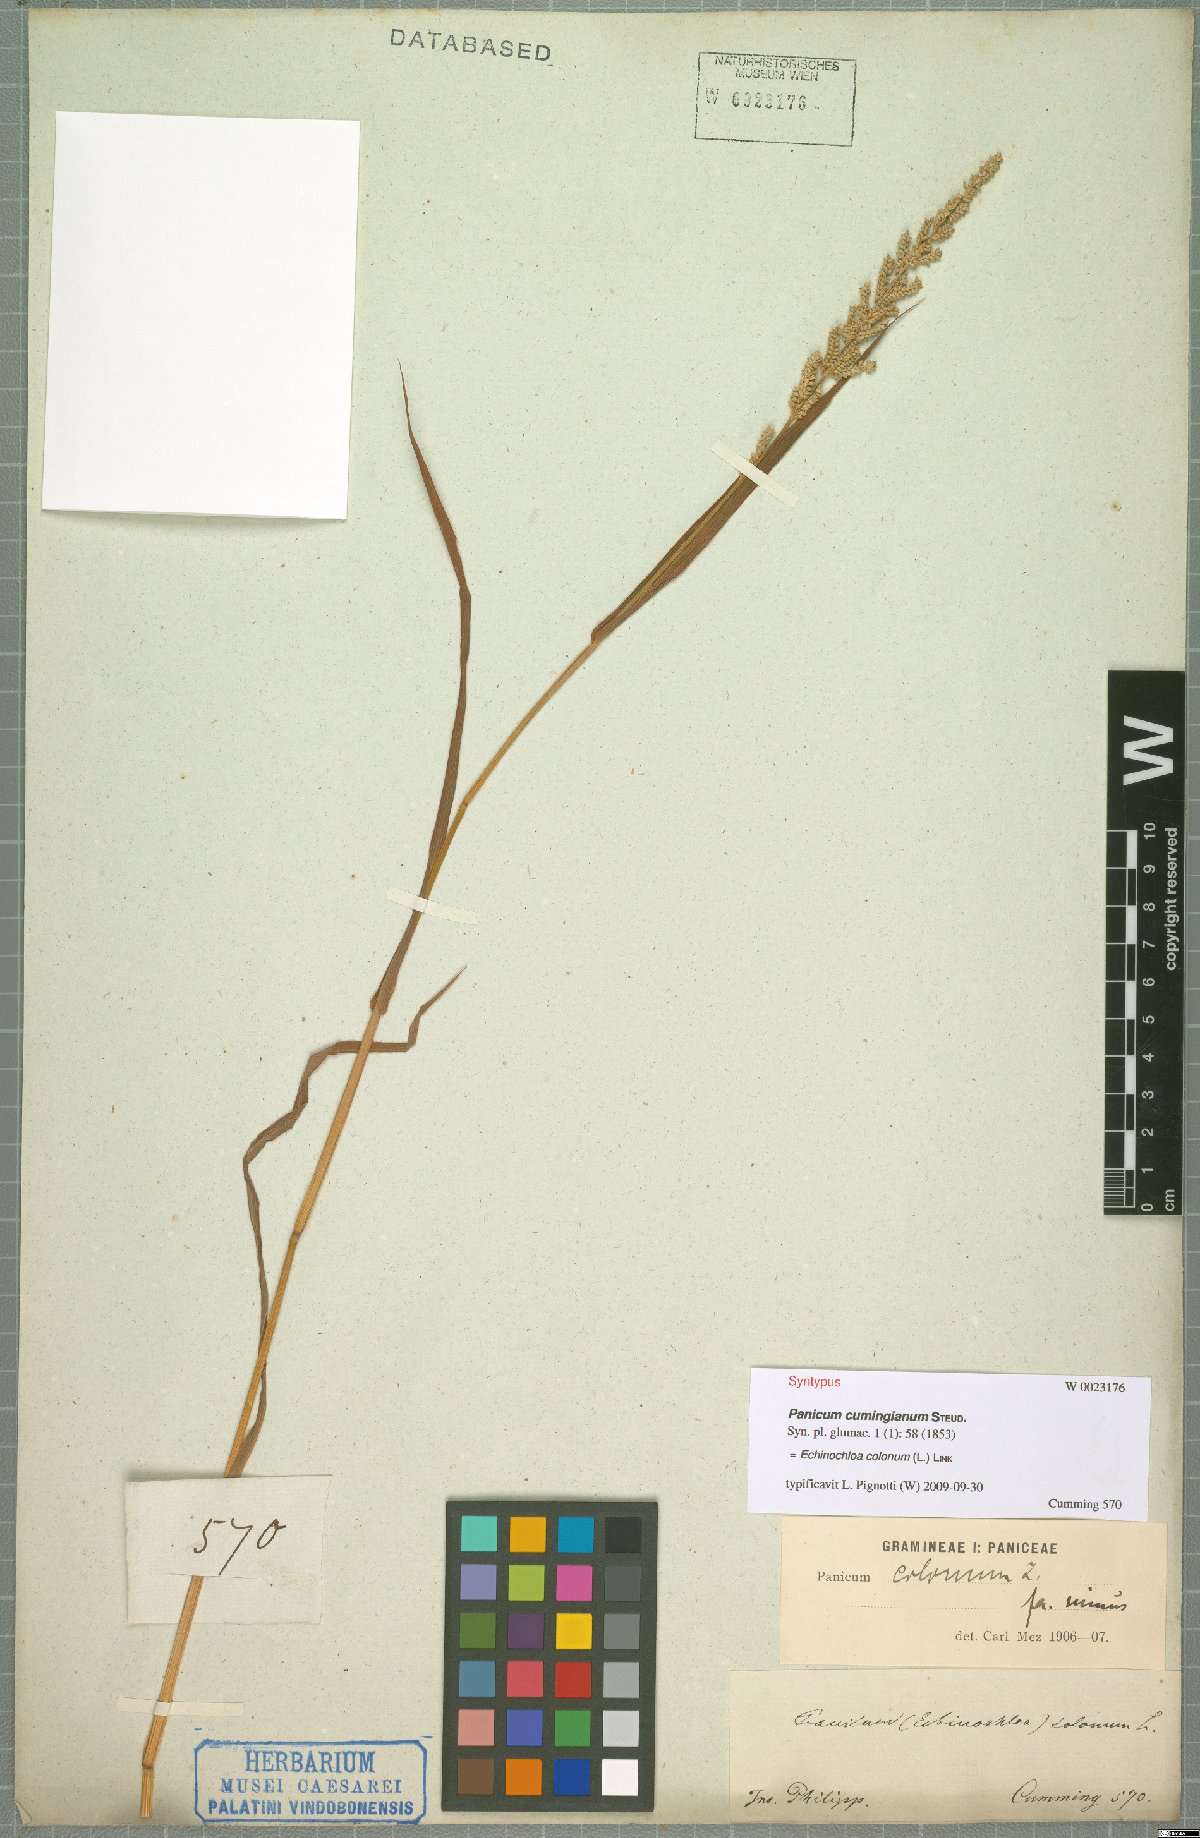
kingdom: Plantae
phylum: Tracheophyta
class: Liliopsida
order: Poales
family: Poaceae
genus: Echinochloa
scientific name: Echinochloa colonum
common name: Jungle rice
